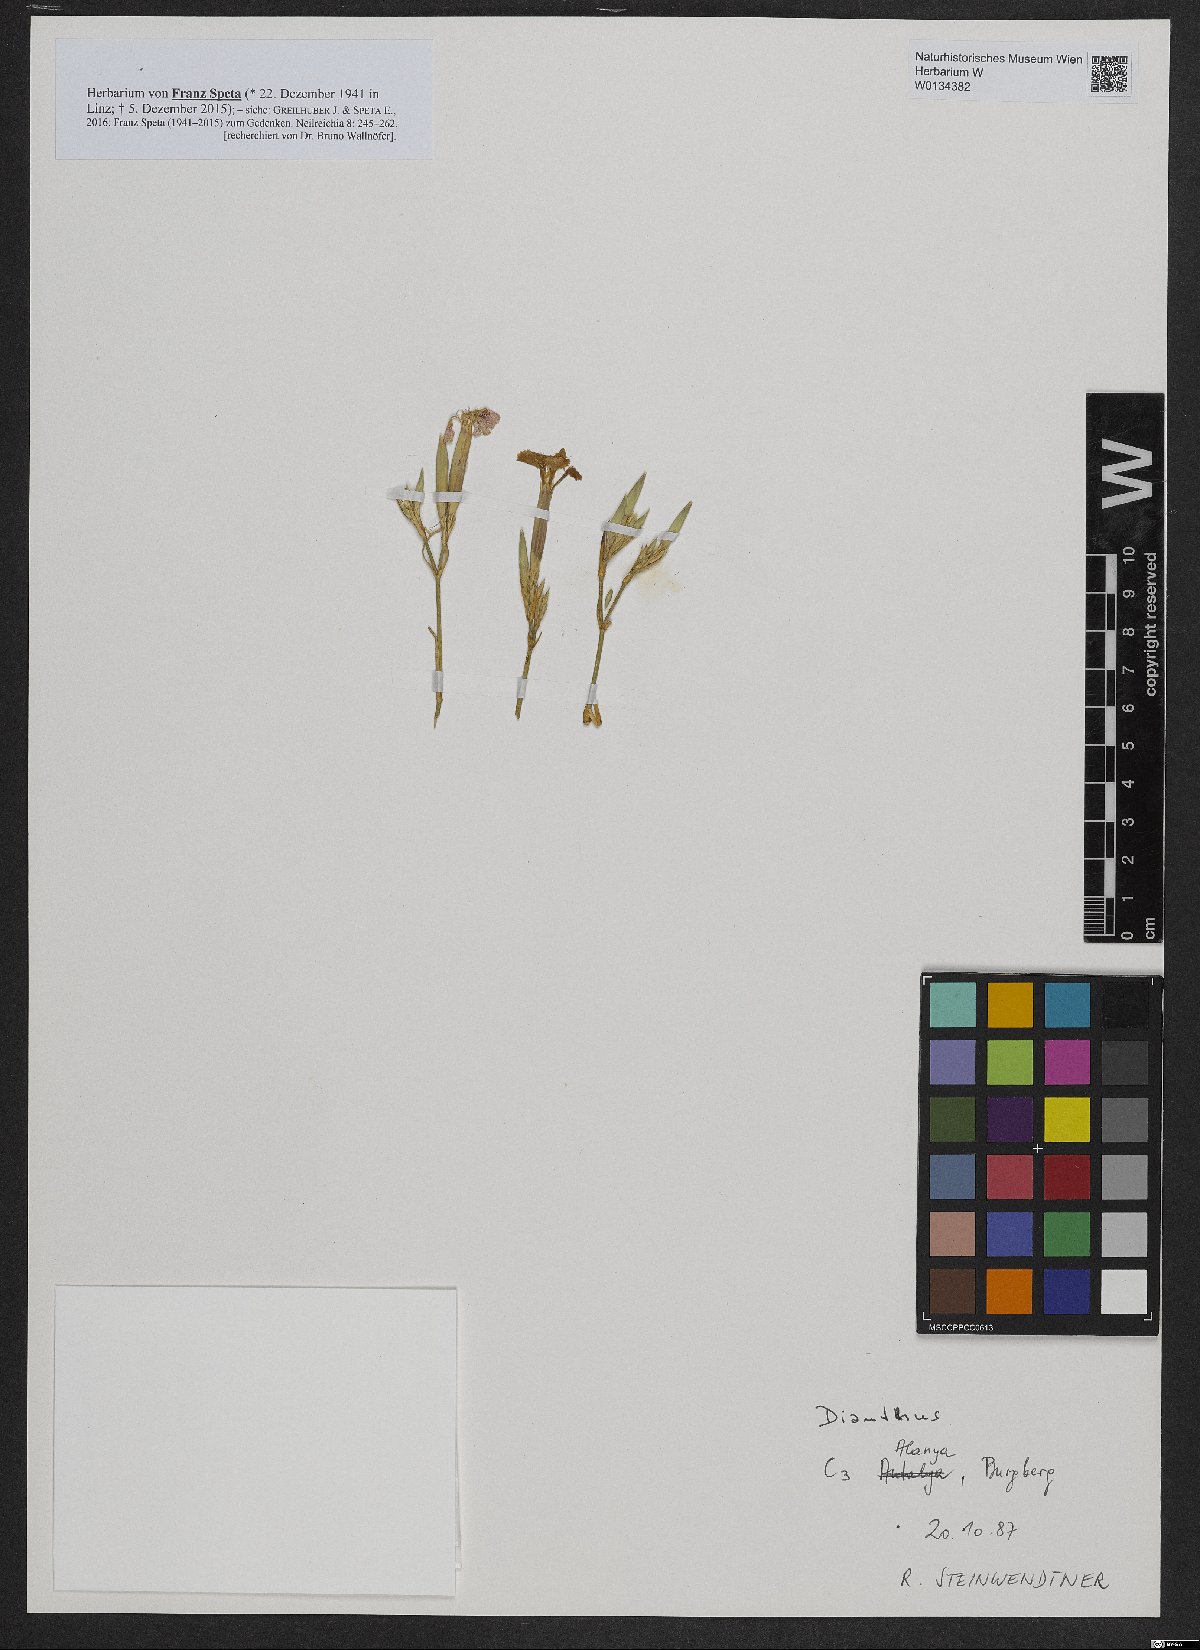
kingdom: Plantae
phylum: Tracheophyta
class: Magnoliopsida
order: Caryophyllales
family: Caryophyllaceae
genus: Dianthus
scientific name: Dianthus
